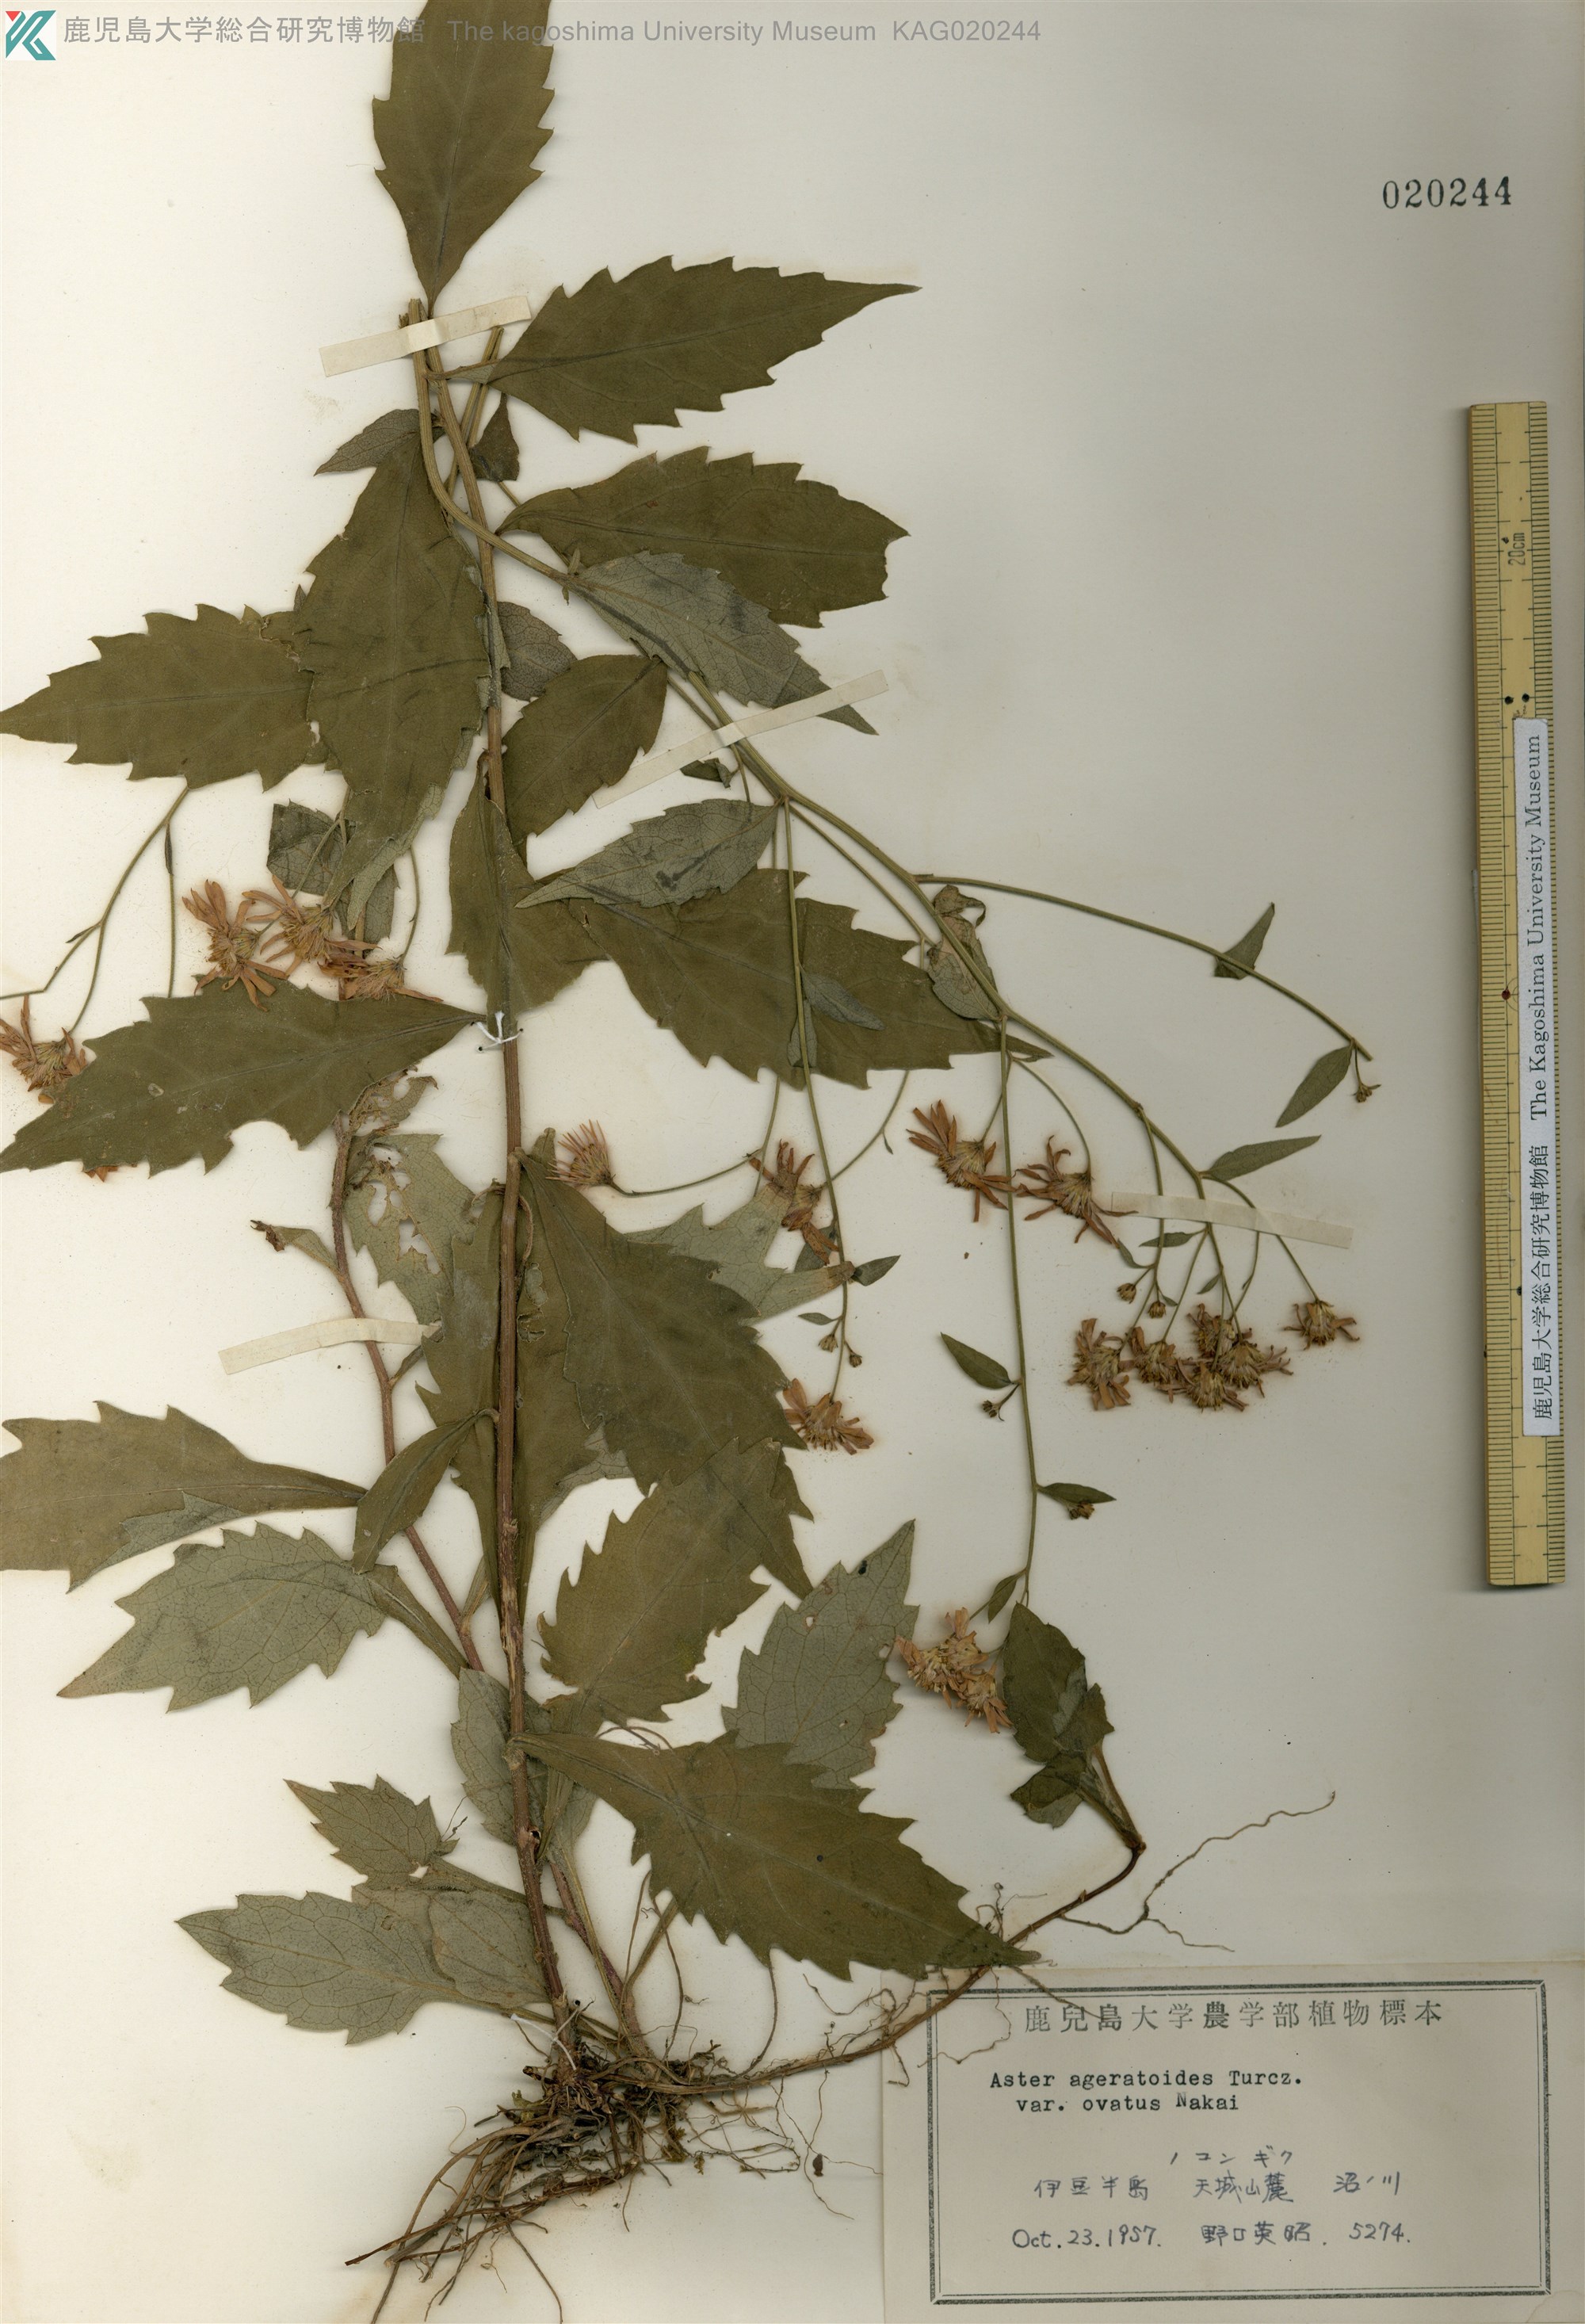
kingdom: Plantae
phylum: Tracheophyta
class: Magnoliopsida
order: Asterales
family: Asteraceae
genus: Aster
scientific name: Aster microcephalus
